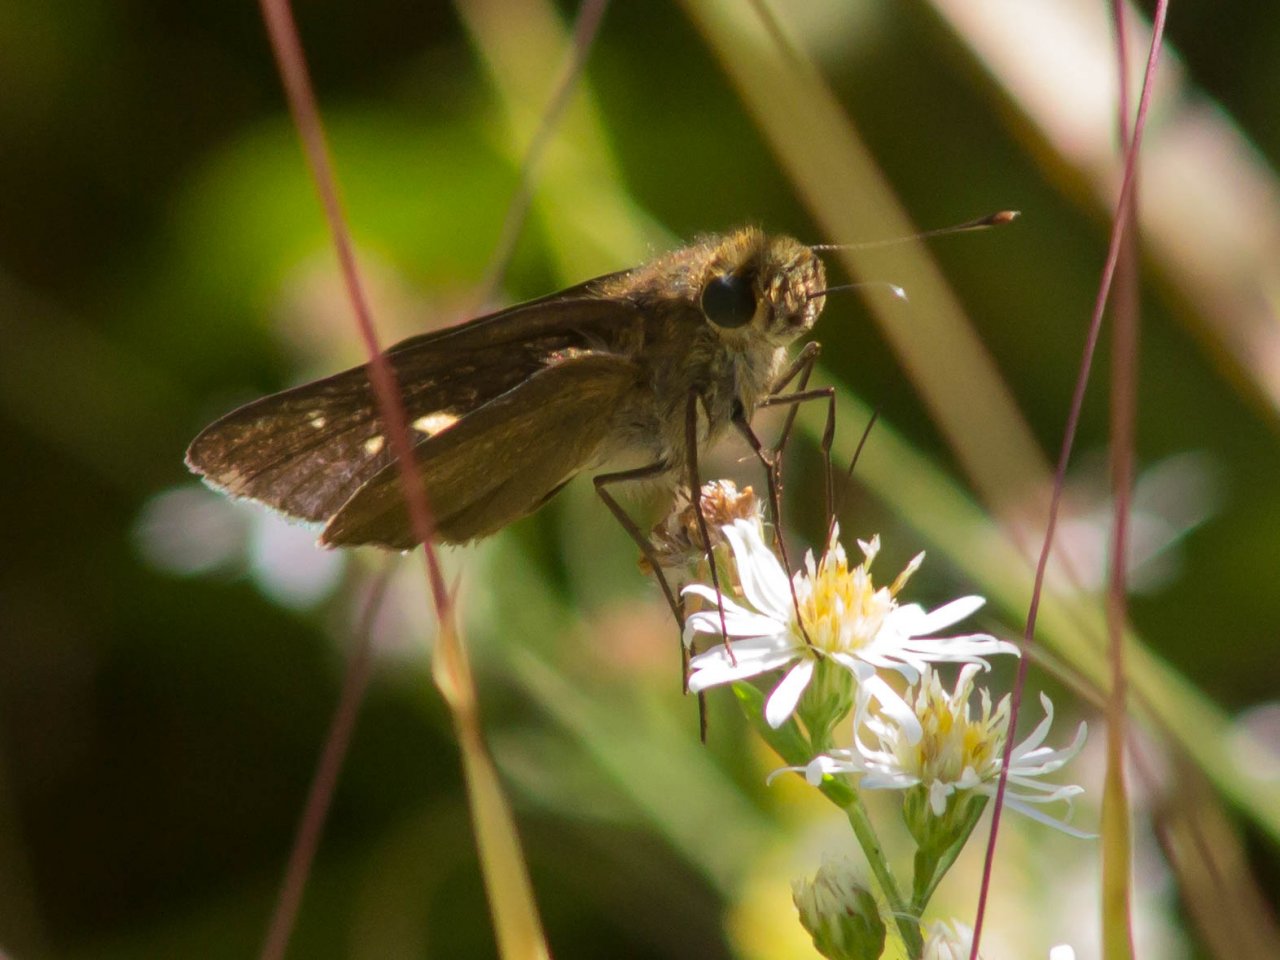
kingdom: Animalia
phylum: Arthropoda
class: Insecta
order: Lepidoptera
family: Hesperiidae
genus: Panoquina
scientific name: Panoquina ocola
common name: Ocola Skipper
